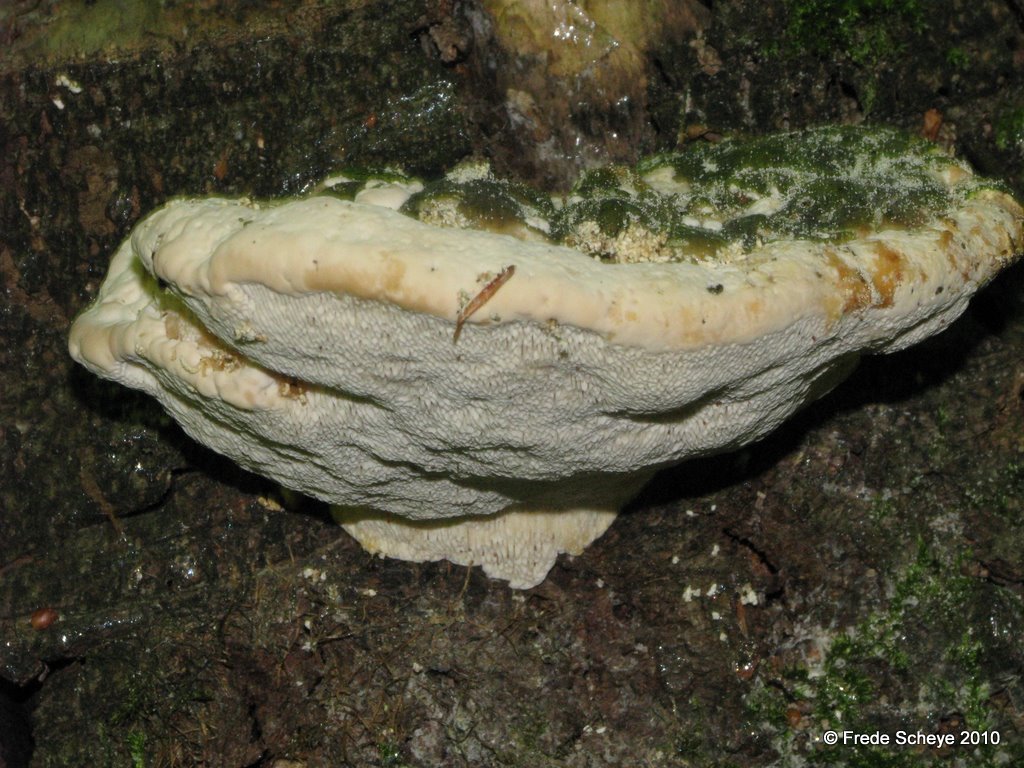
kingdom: Fungi
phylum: Basidiomycota
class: Agaricomycetes
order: Polyporales
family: Polyporaceae
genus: Trametes
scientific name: Trametes gibbosa
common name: puklet læderporesvamp
